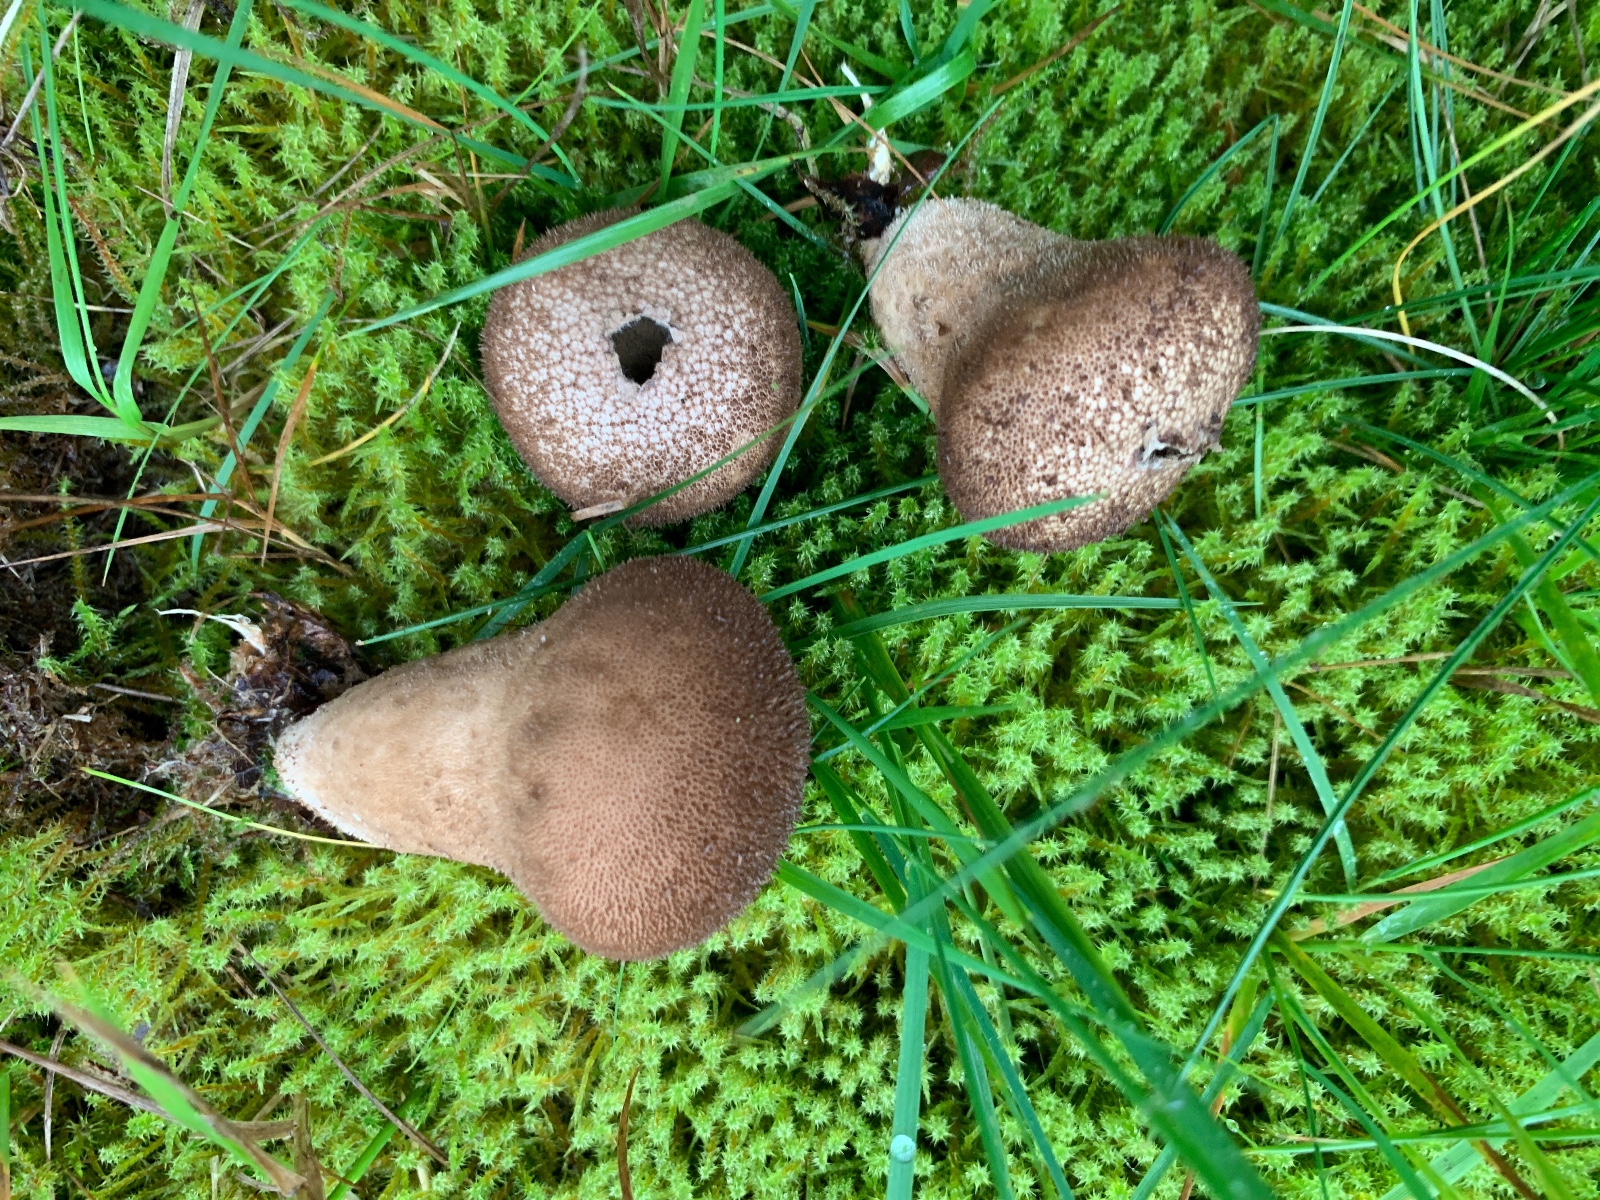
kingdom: Fungi
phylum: Basidiomycota
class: Agaricomycetes
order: Agaricales
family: Lycoperdaceae
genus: Lycoperdon
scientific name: Lycoperdon nigrescens
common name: sortagtig støvbold
